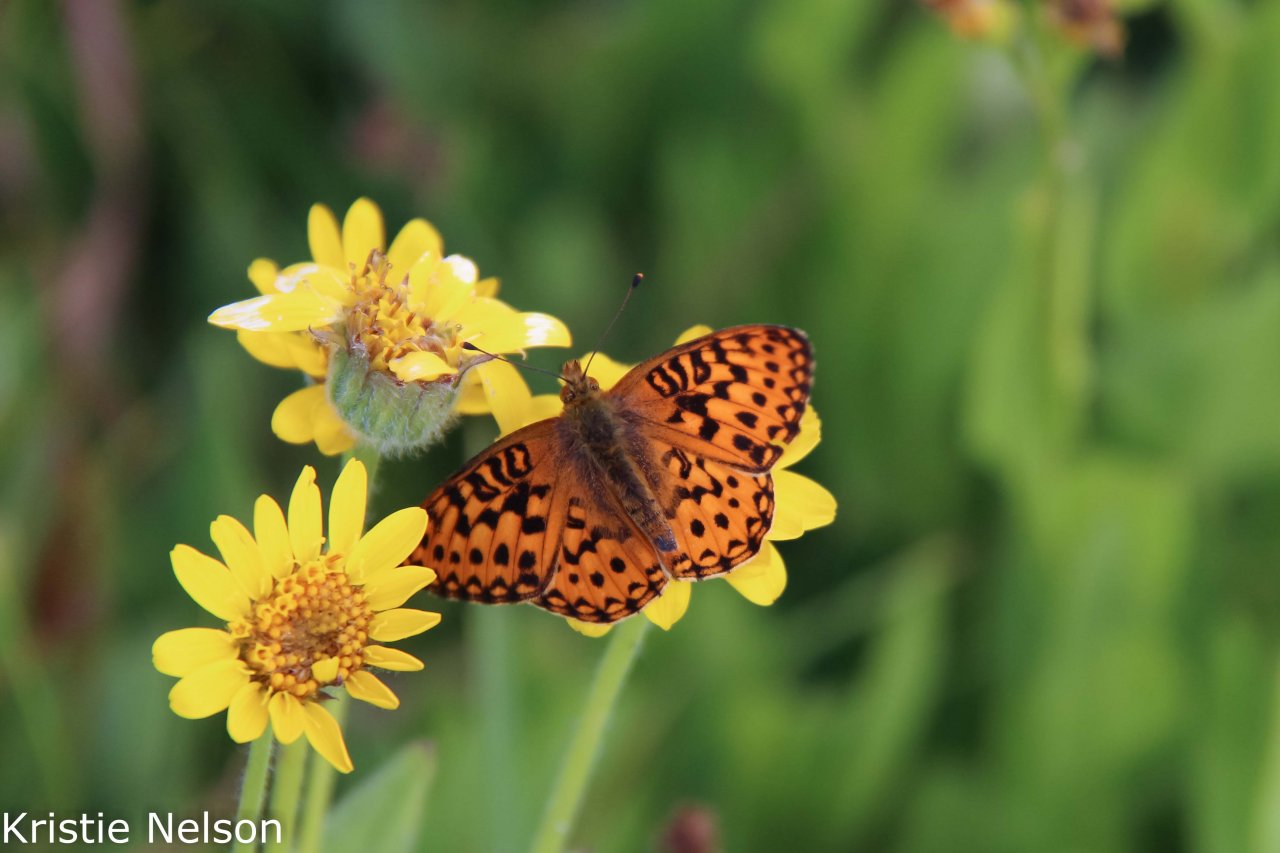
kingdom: Animalia
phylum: Arthropoda
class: Insecta
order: Lepidoptera
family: Nymphalidae
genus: Speyeria
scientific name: Speyeria mormonia
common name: Mormon Fritillary
